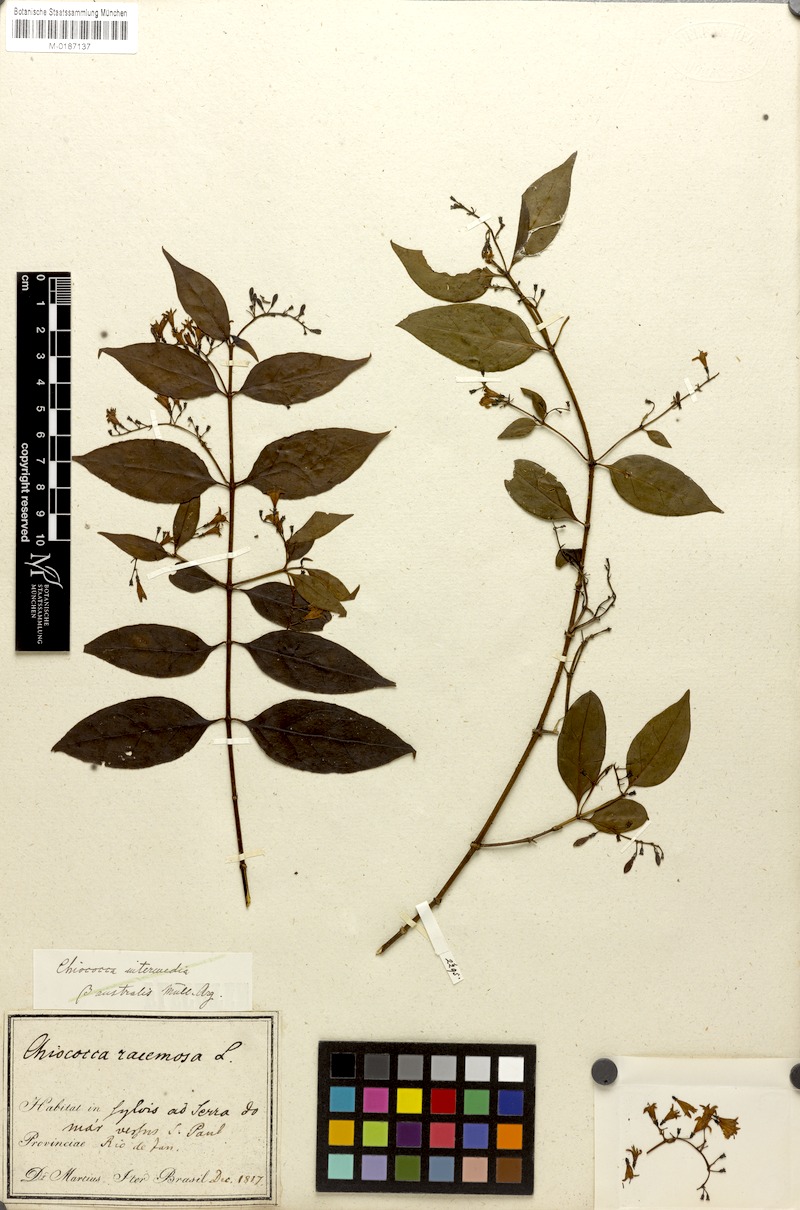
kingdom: Plantae
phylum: Tracheophyta
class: Magnoliopsida
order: Gentianales
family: Rubiaceae
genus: Chiococca
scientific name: Chiococca alba
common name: Snowberry
